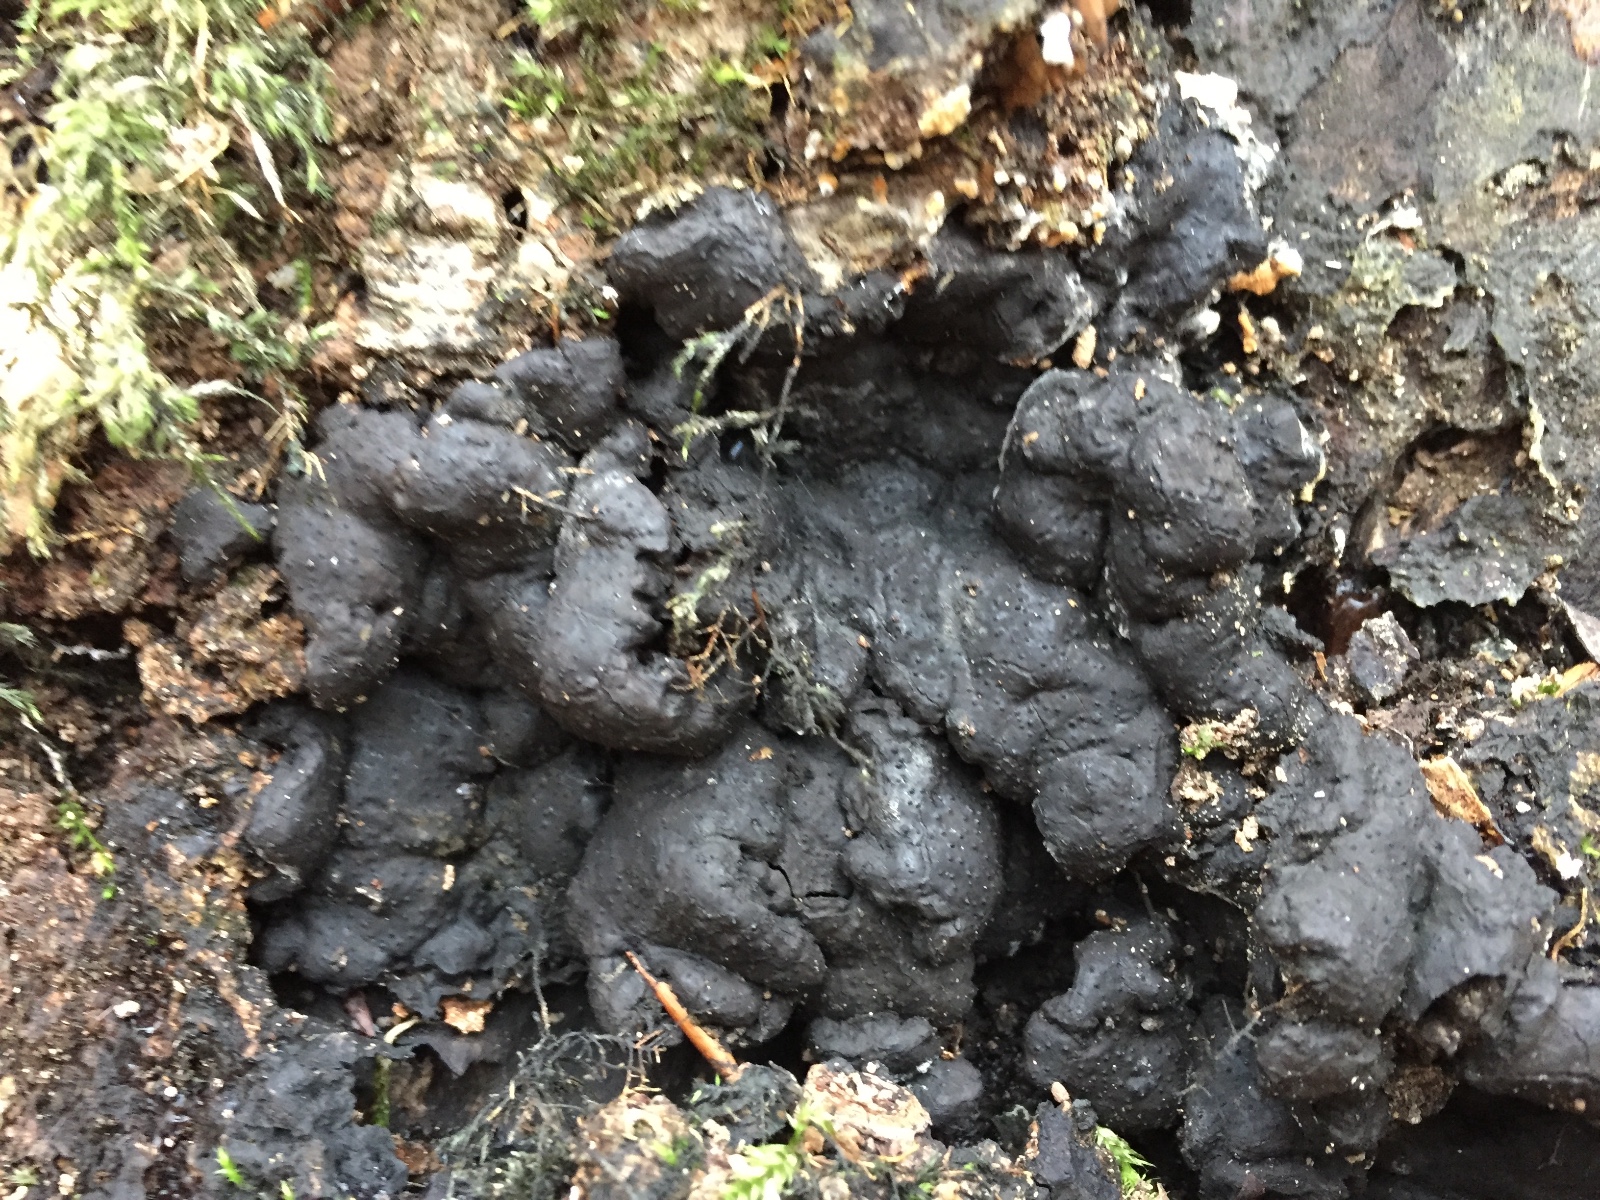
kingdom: Fungi
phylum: Ascomycota
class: Sordariomycetes
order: Xylariales
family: Xylariaceae
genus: Kretzschmaria
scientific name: Kretzschmaria deusta
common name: stor kulsvamp
